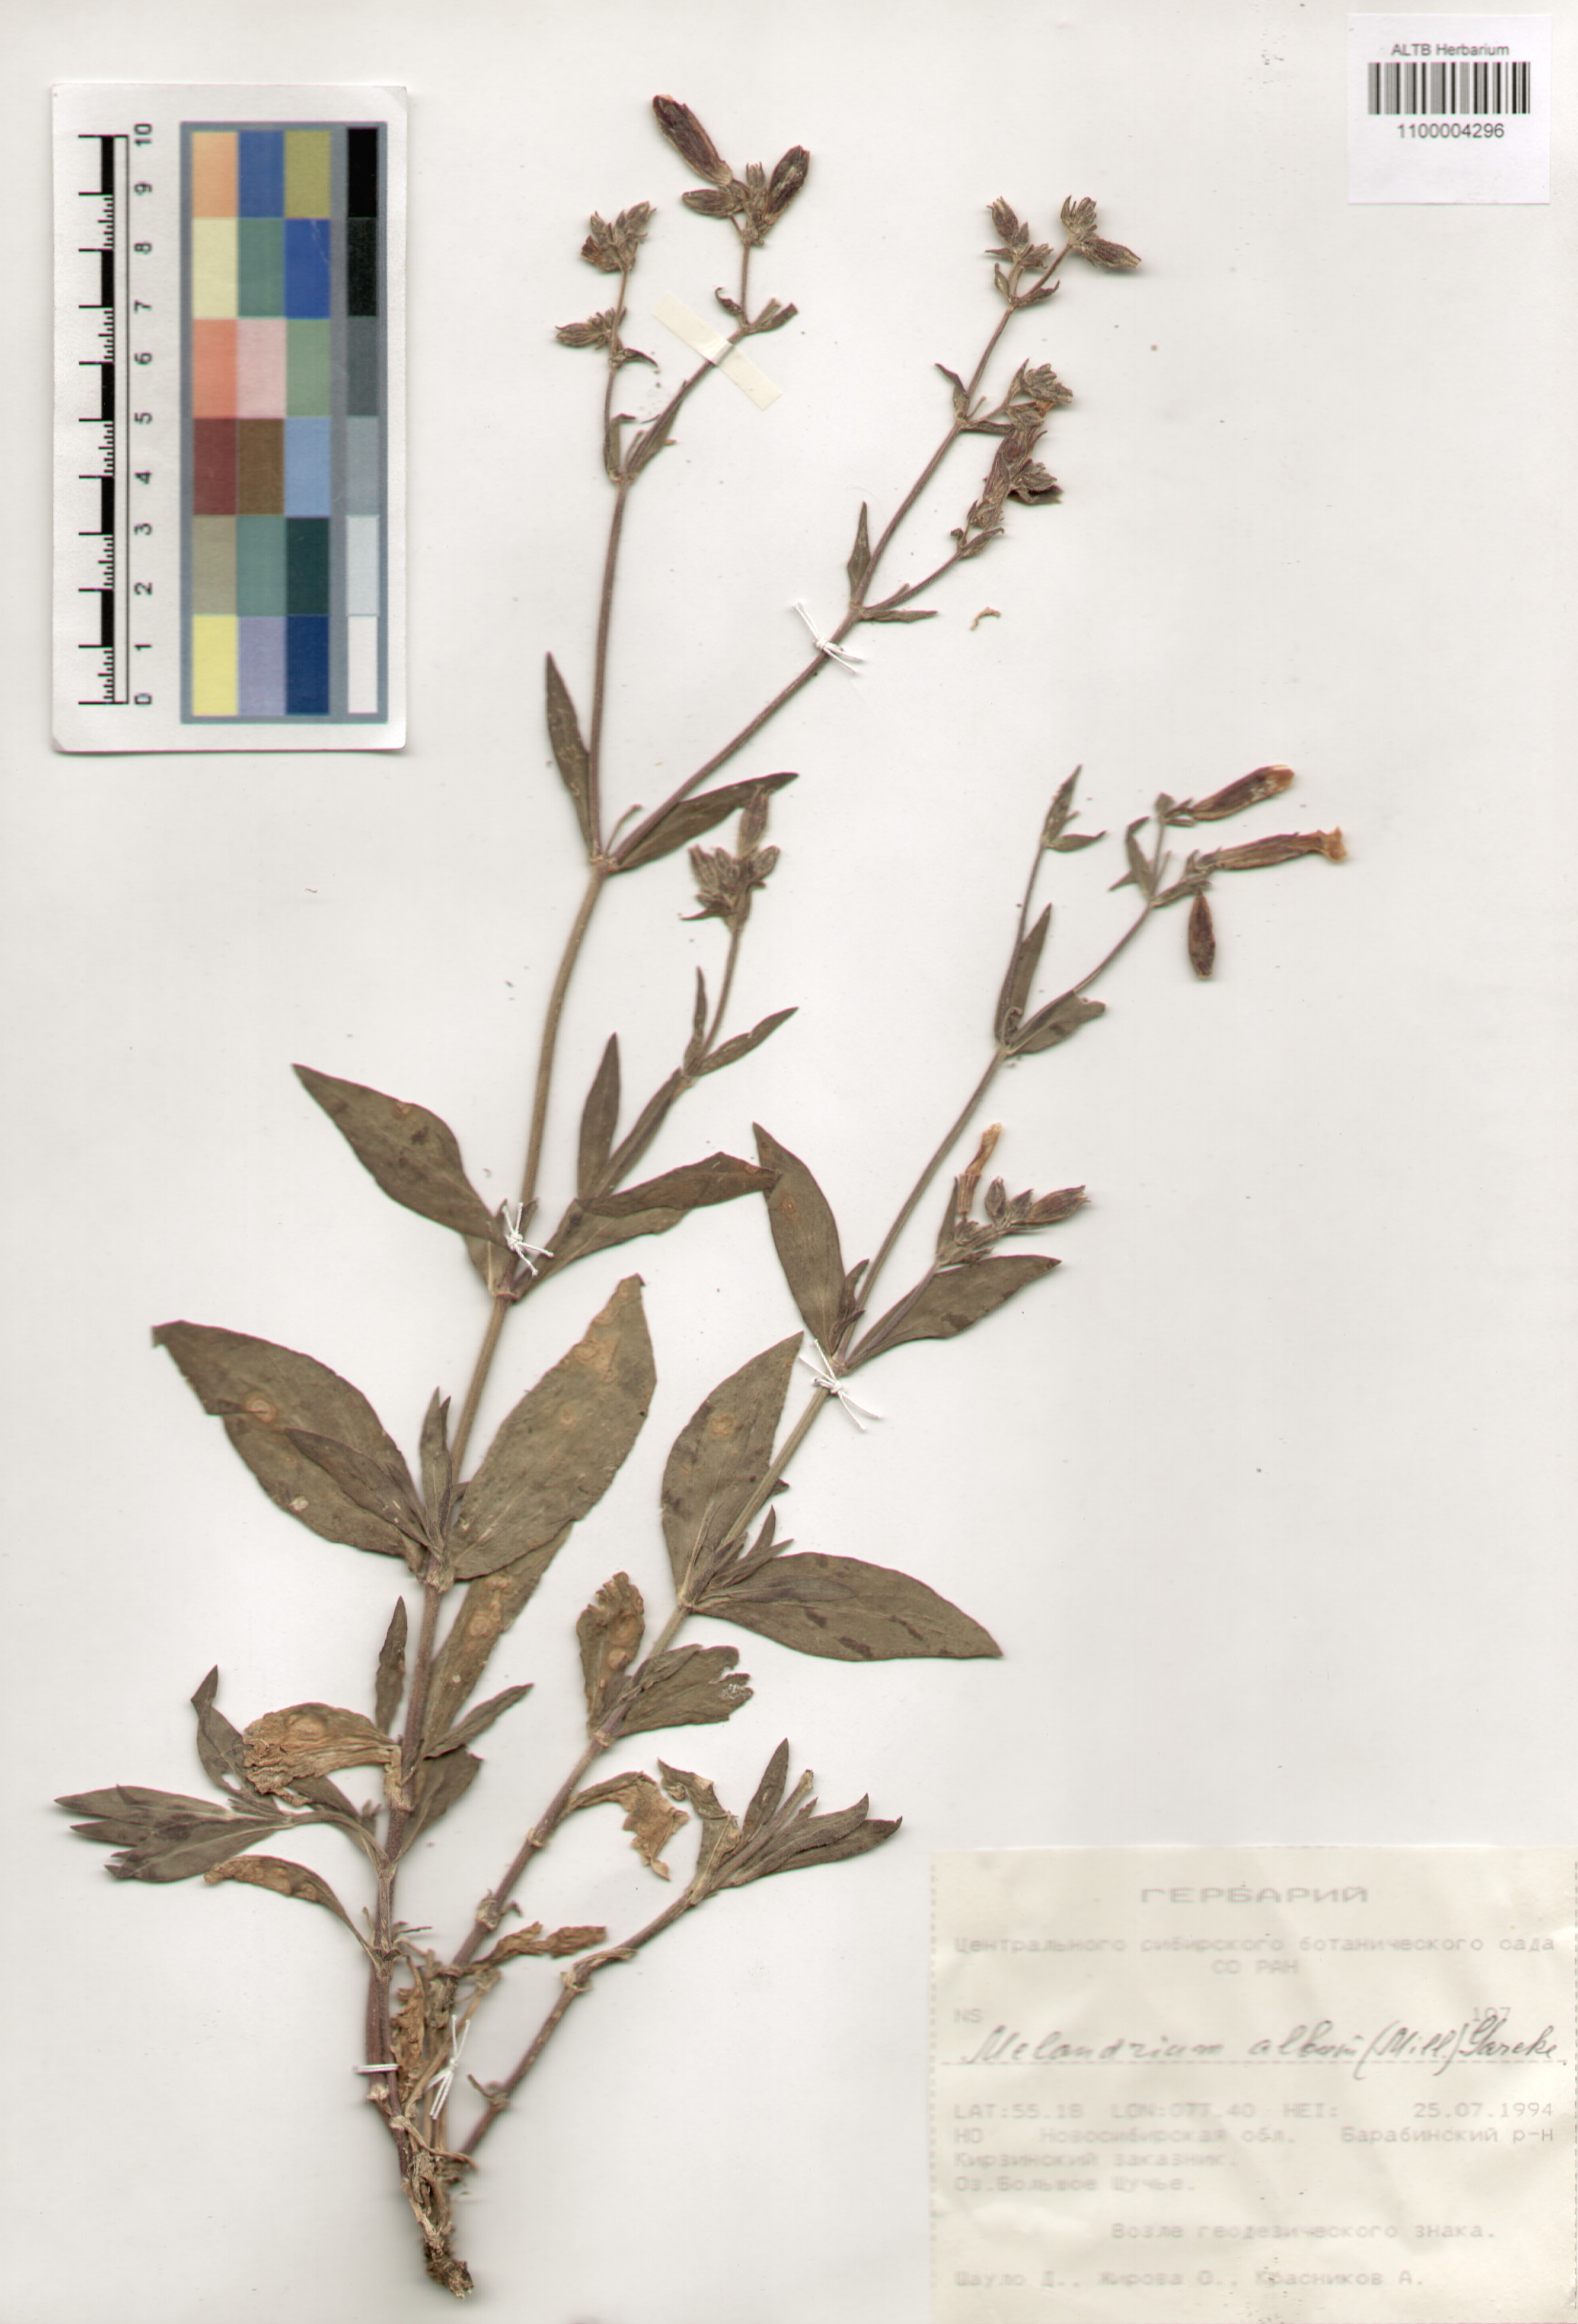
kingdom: Plantae
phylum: Tracheophyta
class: Magnoliopsida
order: Caryophyllales
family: Caryophyllaceae
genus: Silene
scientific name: Silene latifolia
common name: White campion
